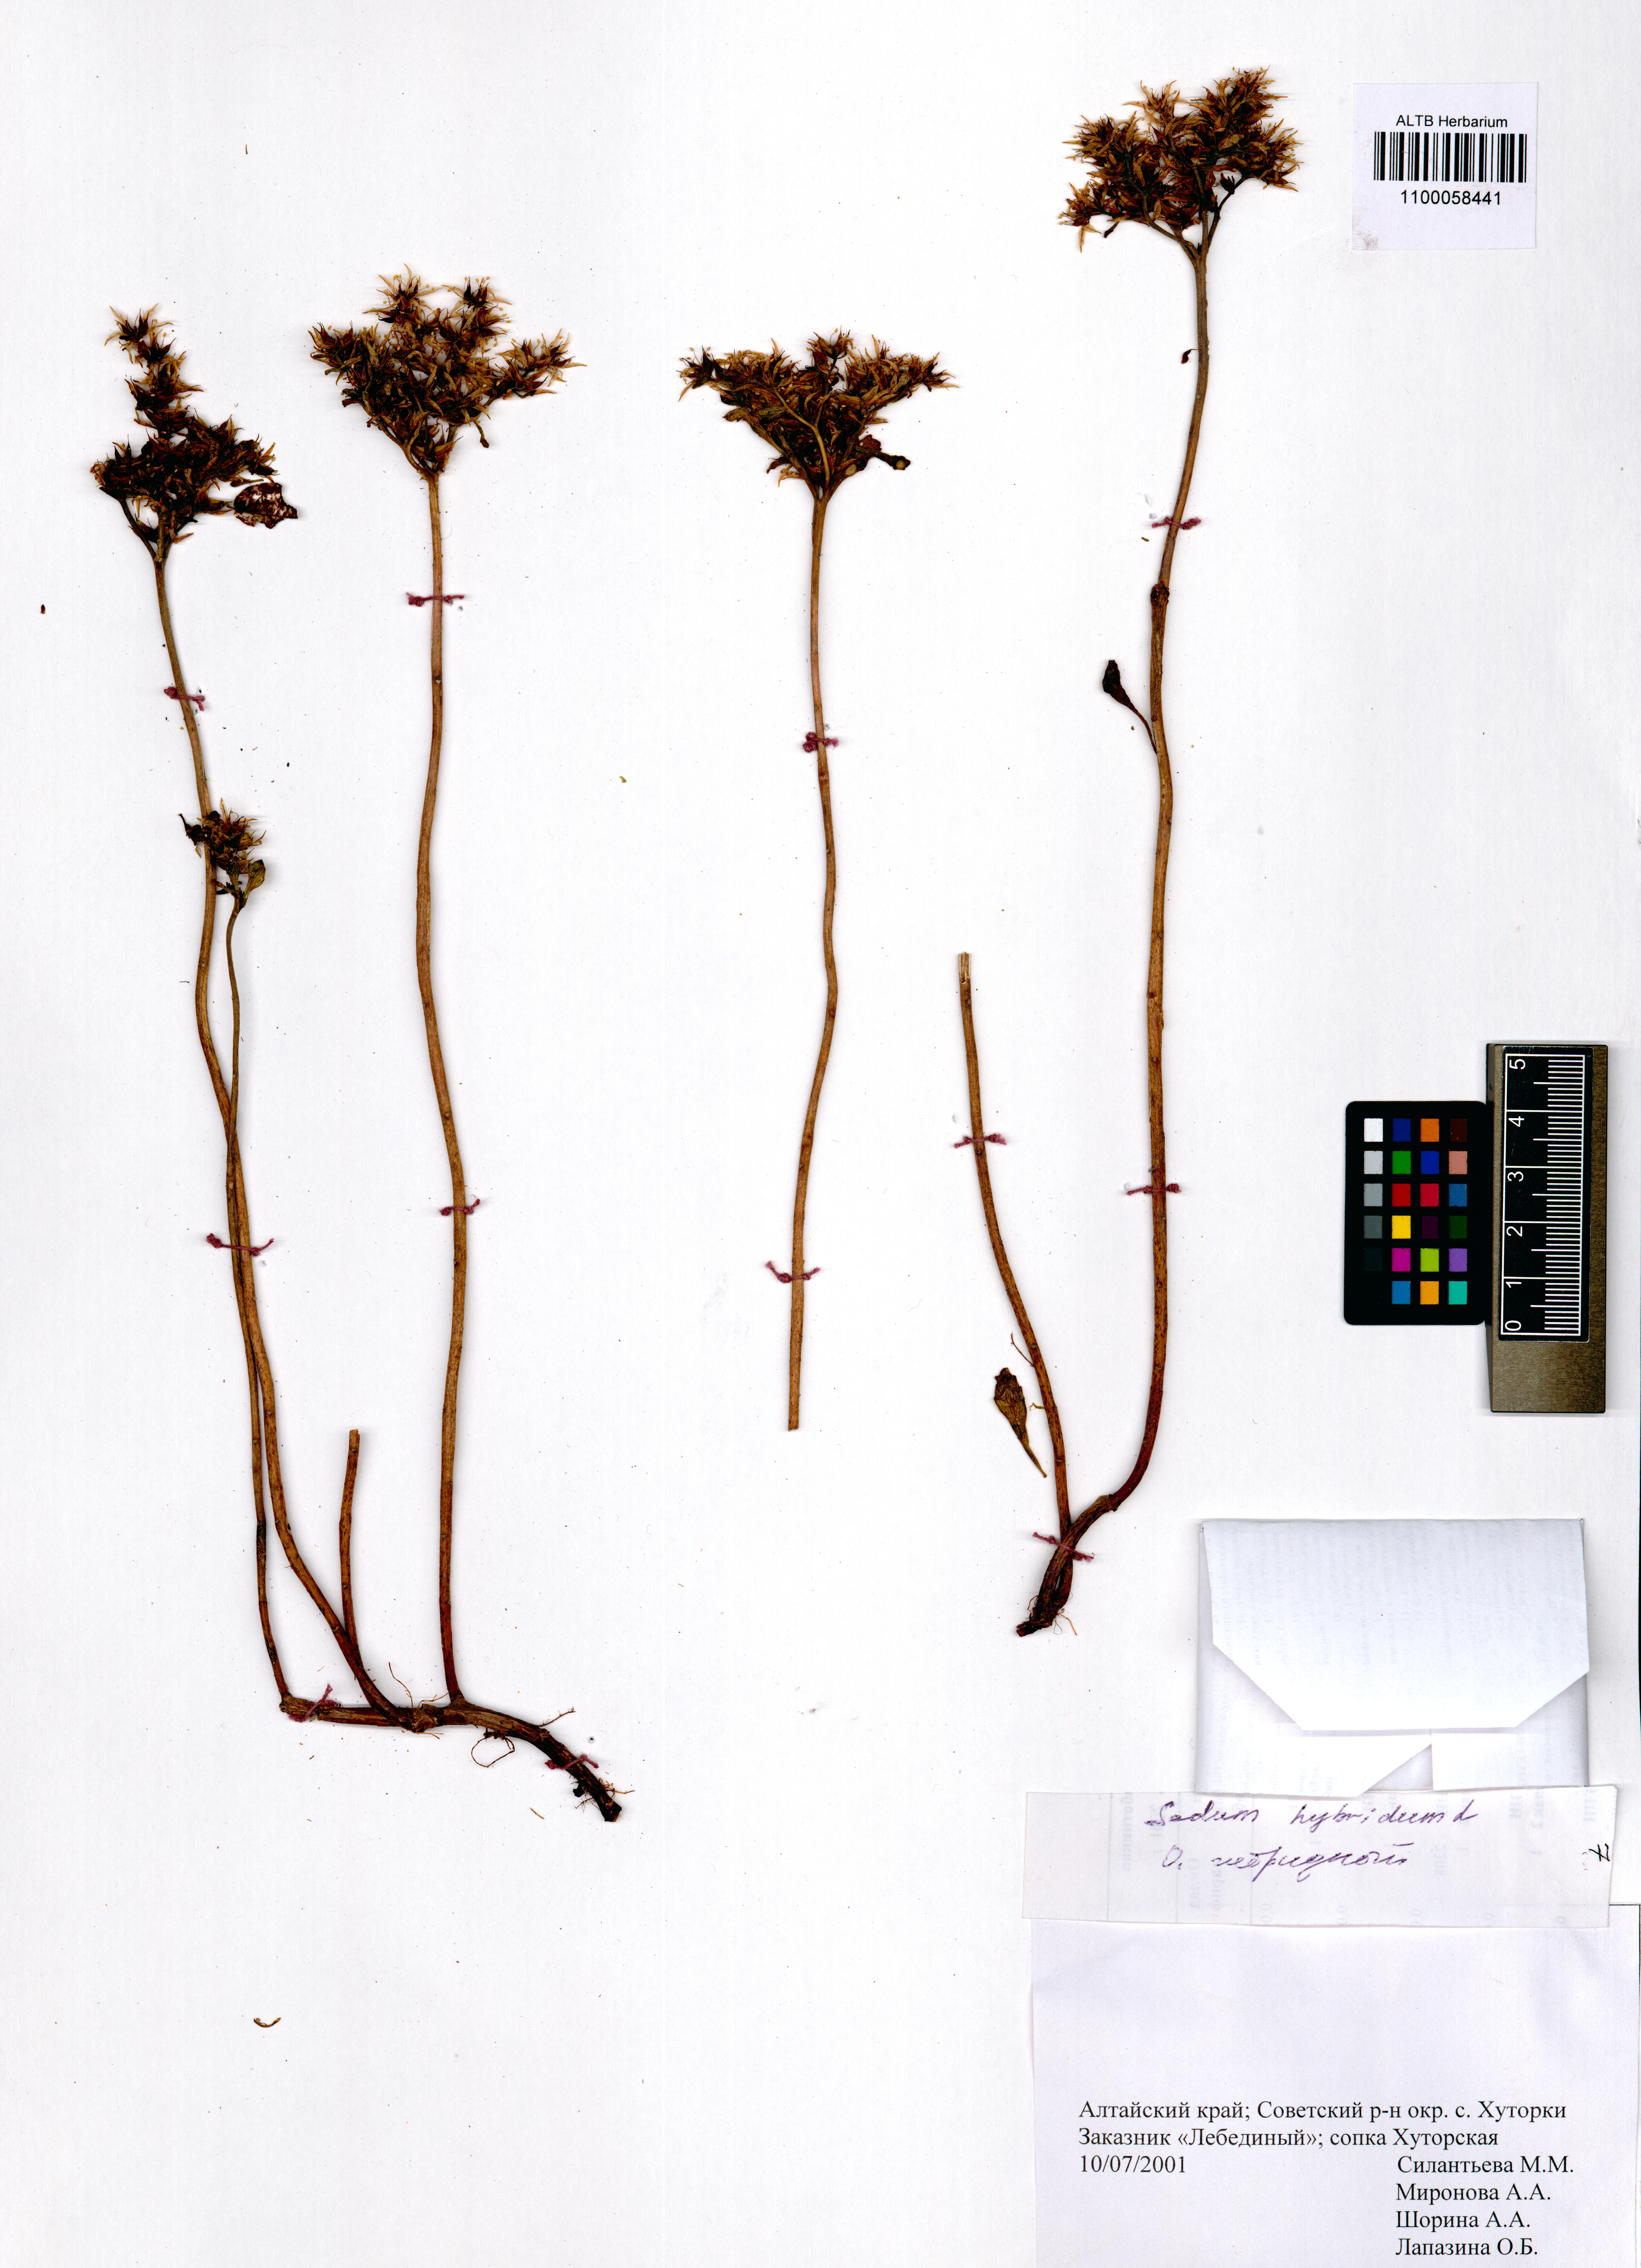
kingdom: Plantae
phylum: Tracheophyta
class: Magnoliopsida
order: Saxifragales
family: Crassulaceae
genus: Phedimus
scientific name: Phedimus hybridus
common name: Hybrid stonecrop
